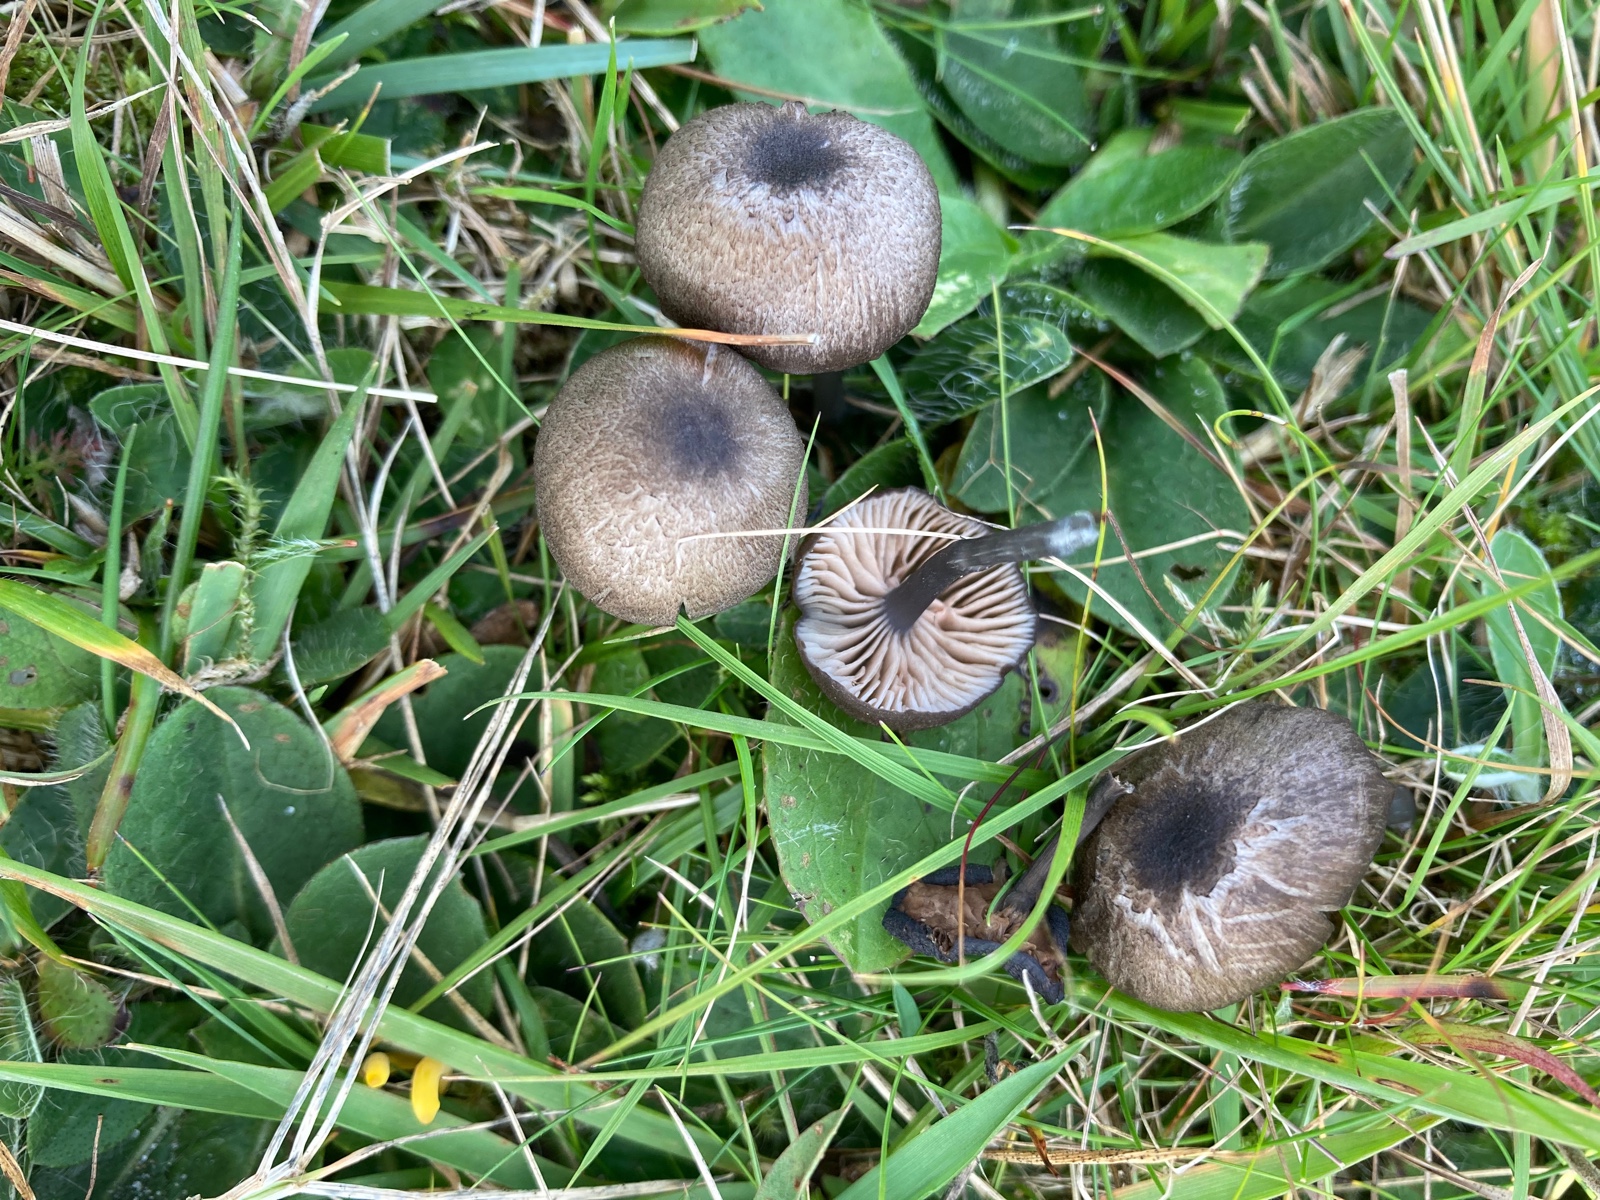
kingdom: Fungi
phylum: Basidiomycota
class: Agaricomycetes
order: Agaricales
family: Entolomataceae
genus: Entoloma
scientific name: Entoloma
